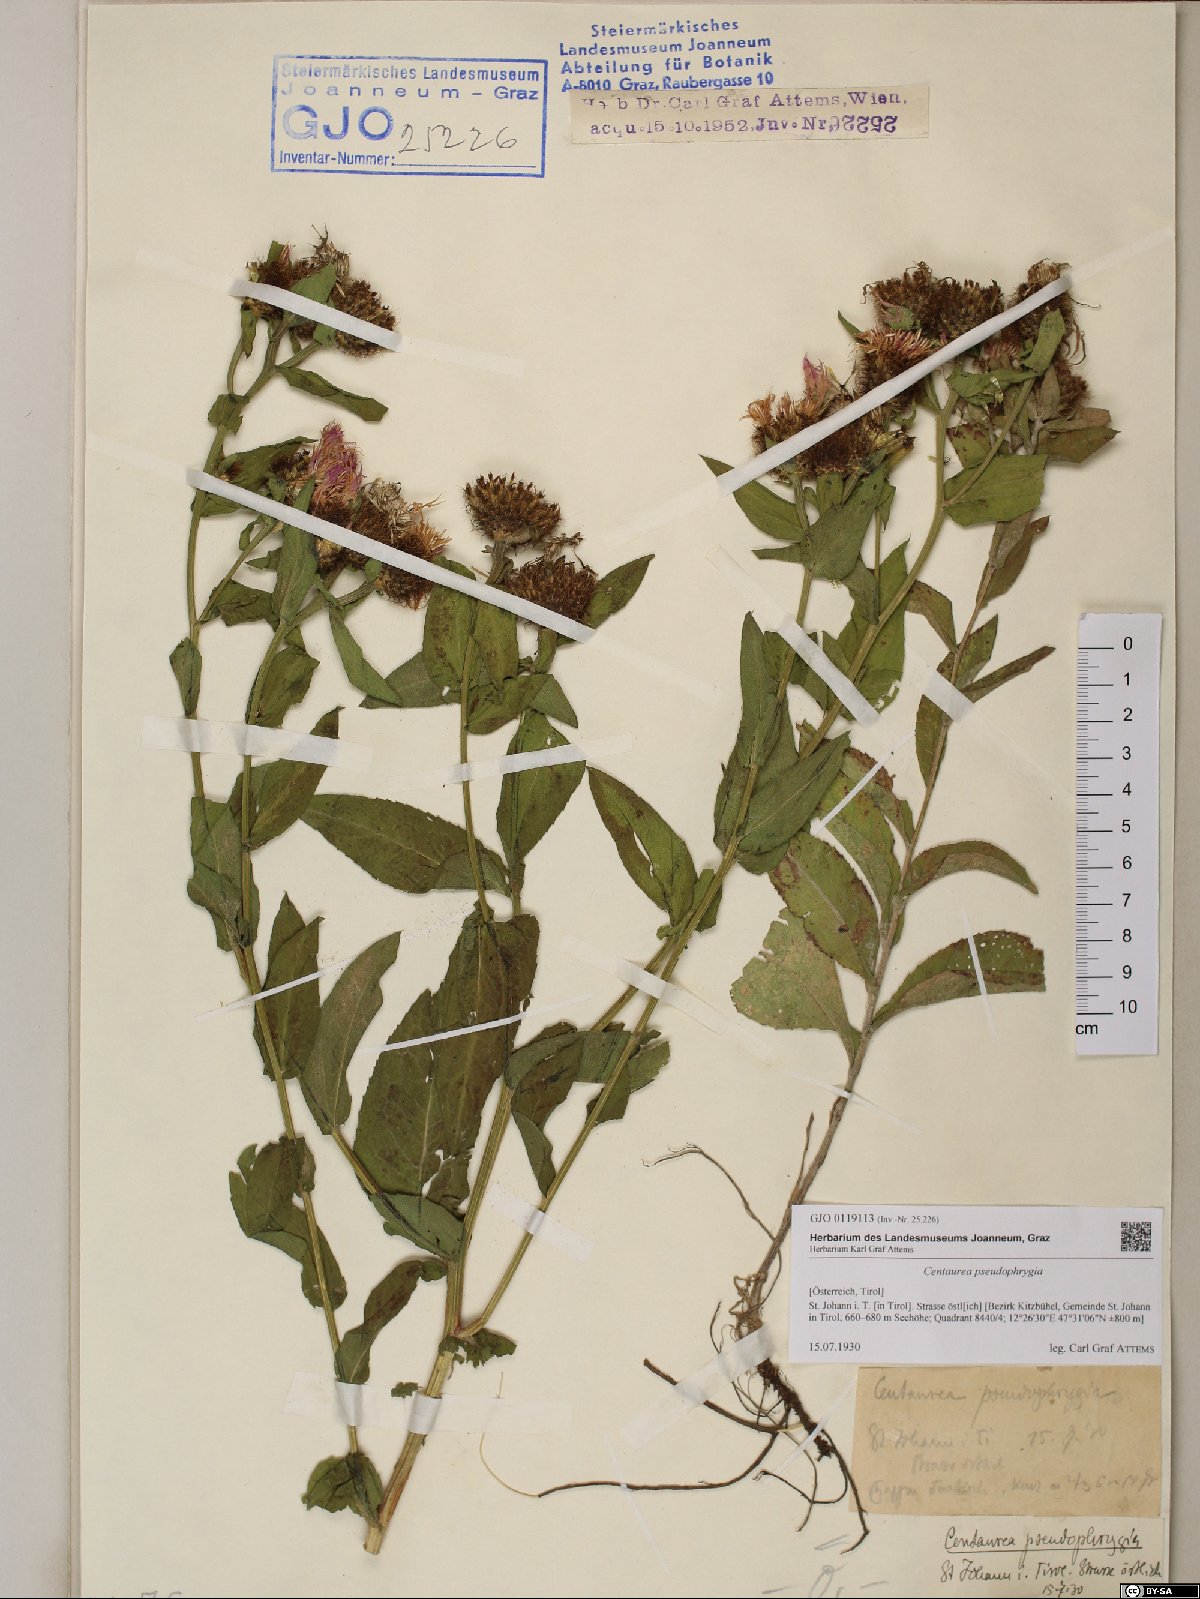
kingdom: Plantae
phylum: Tracheophyta
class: Magnoliopsida
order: Asterales
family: Asteraceae
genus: Centaurea
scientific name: Centaurea pseudophrygia
